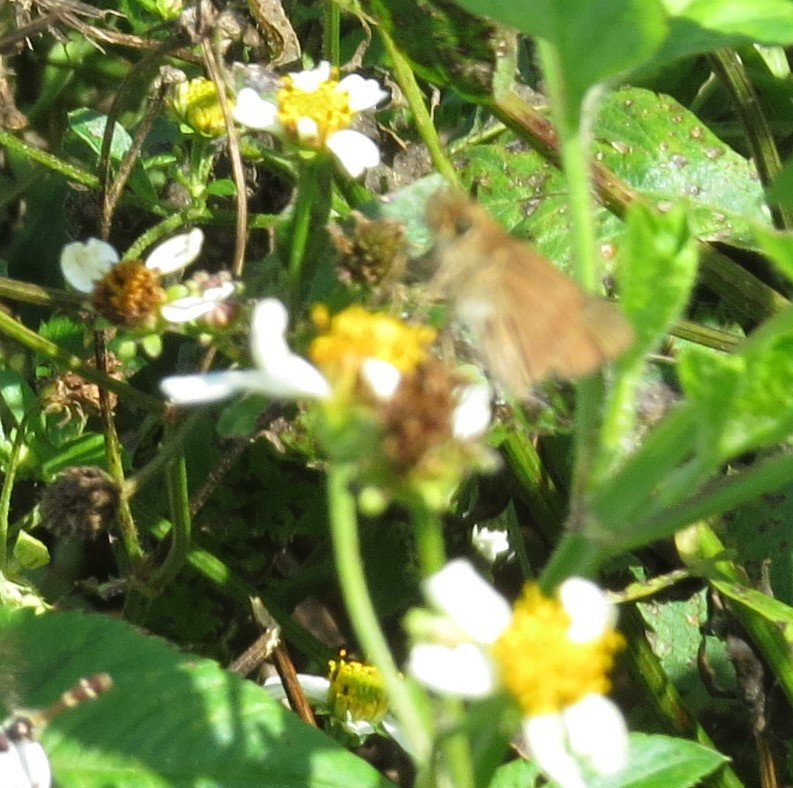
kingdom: Animalia
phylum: Arthropoda
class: Insecta
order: Lepidoptera
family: Hesperiidae
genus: Panoquina
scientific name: Panoquina ocola
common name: Ocola Skipper
